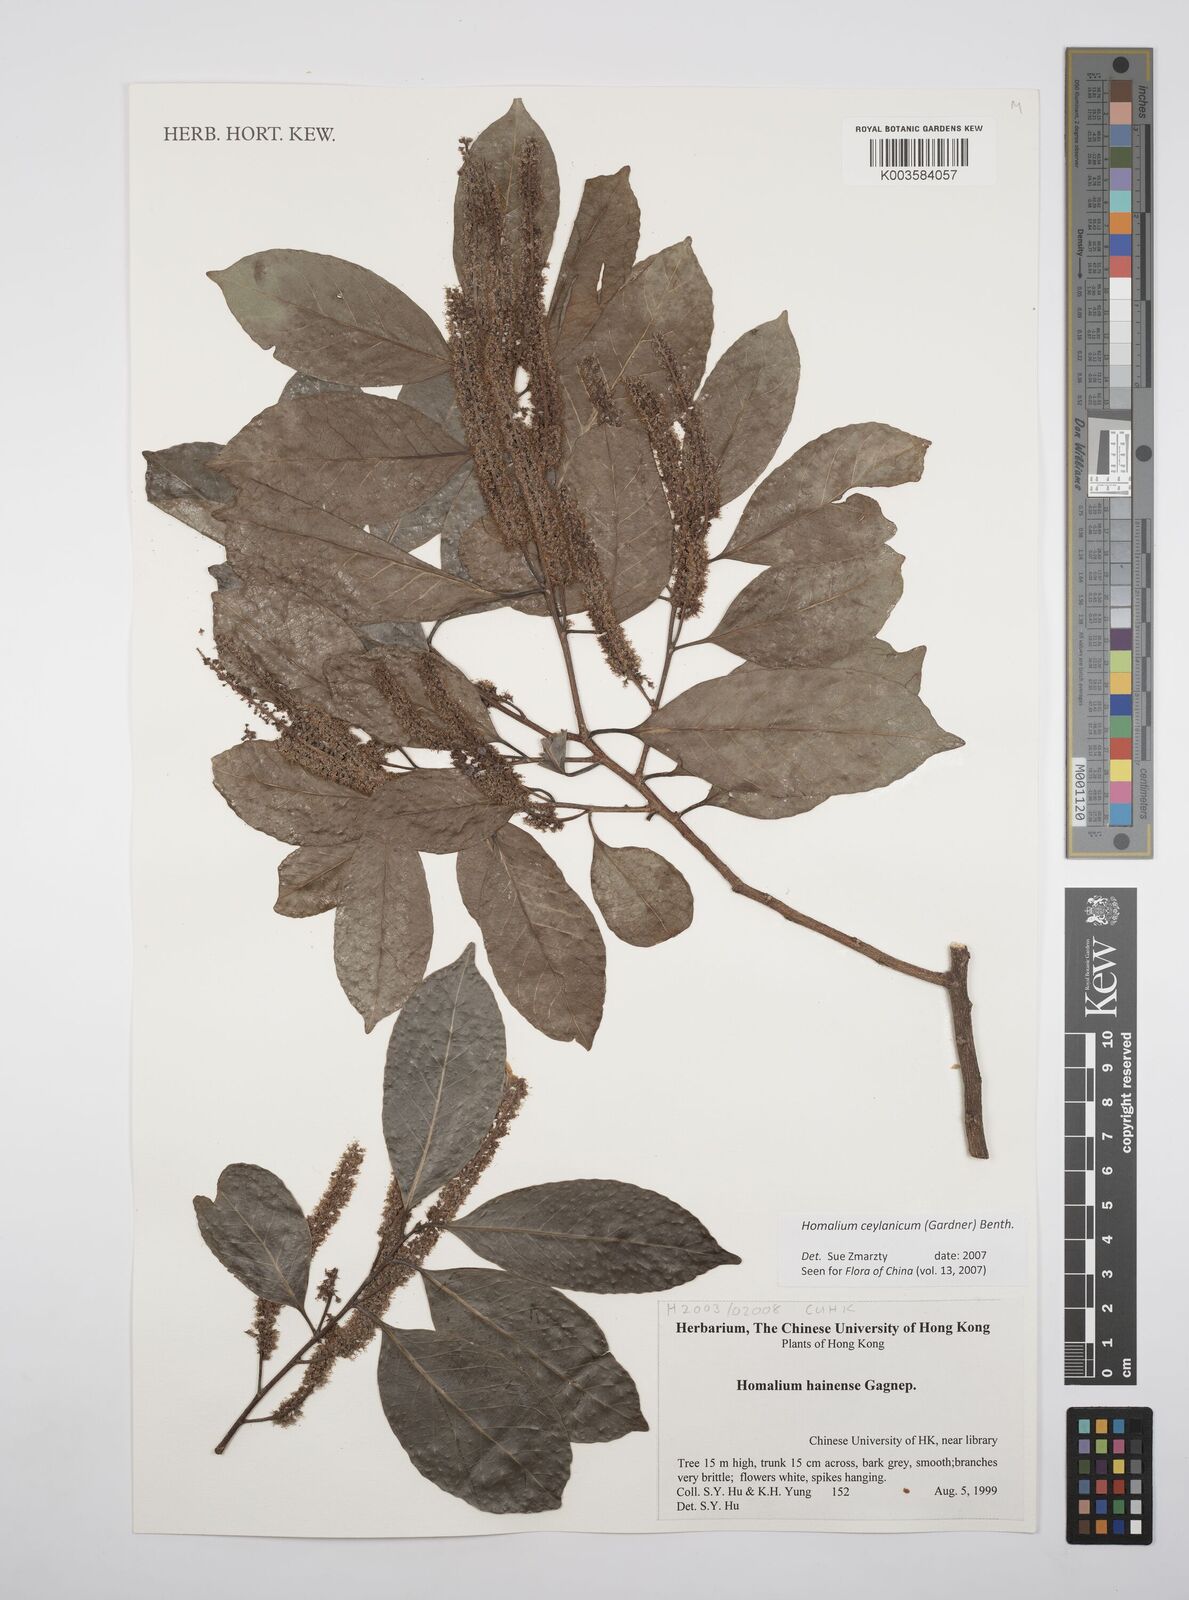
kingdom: Plantae
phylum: Tracheophyta
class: Magnoliopsida
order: Malpighiales
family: Salicaceae
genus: Homalium
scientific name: Homalium ceylanicum
